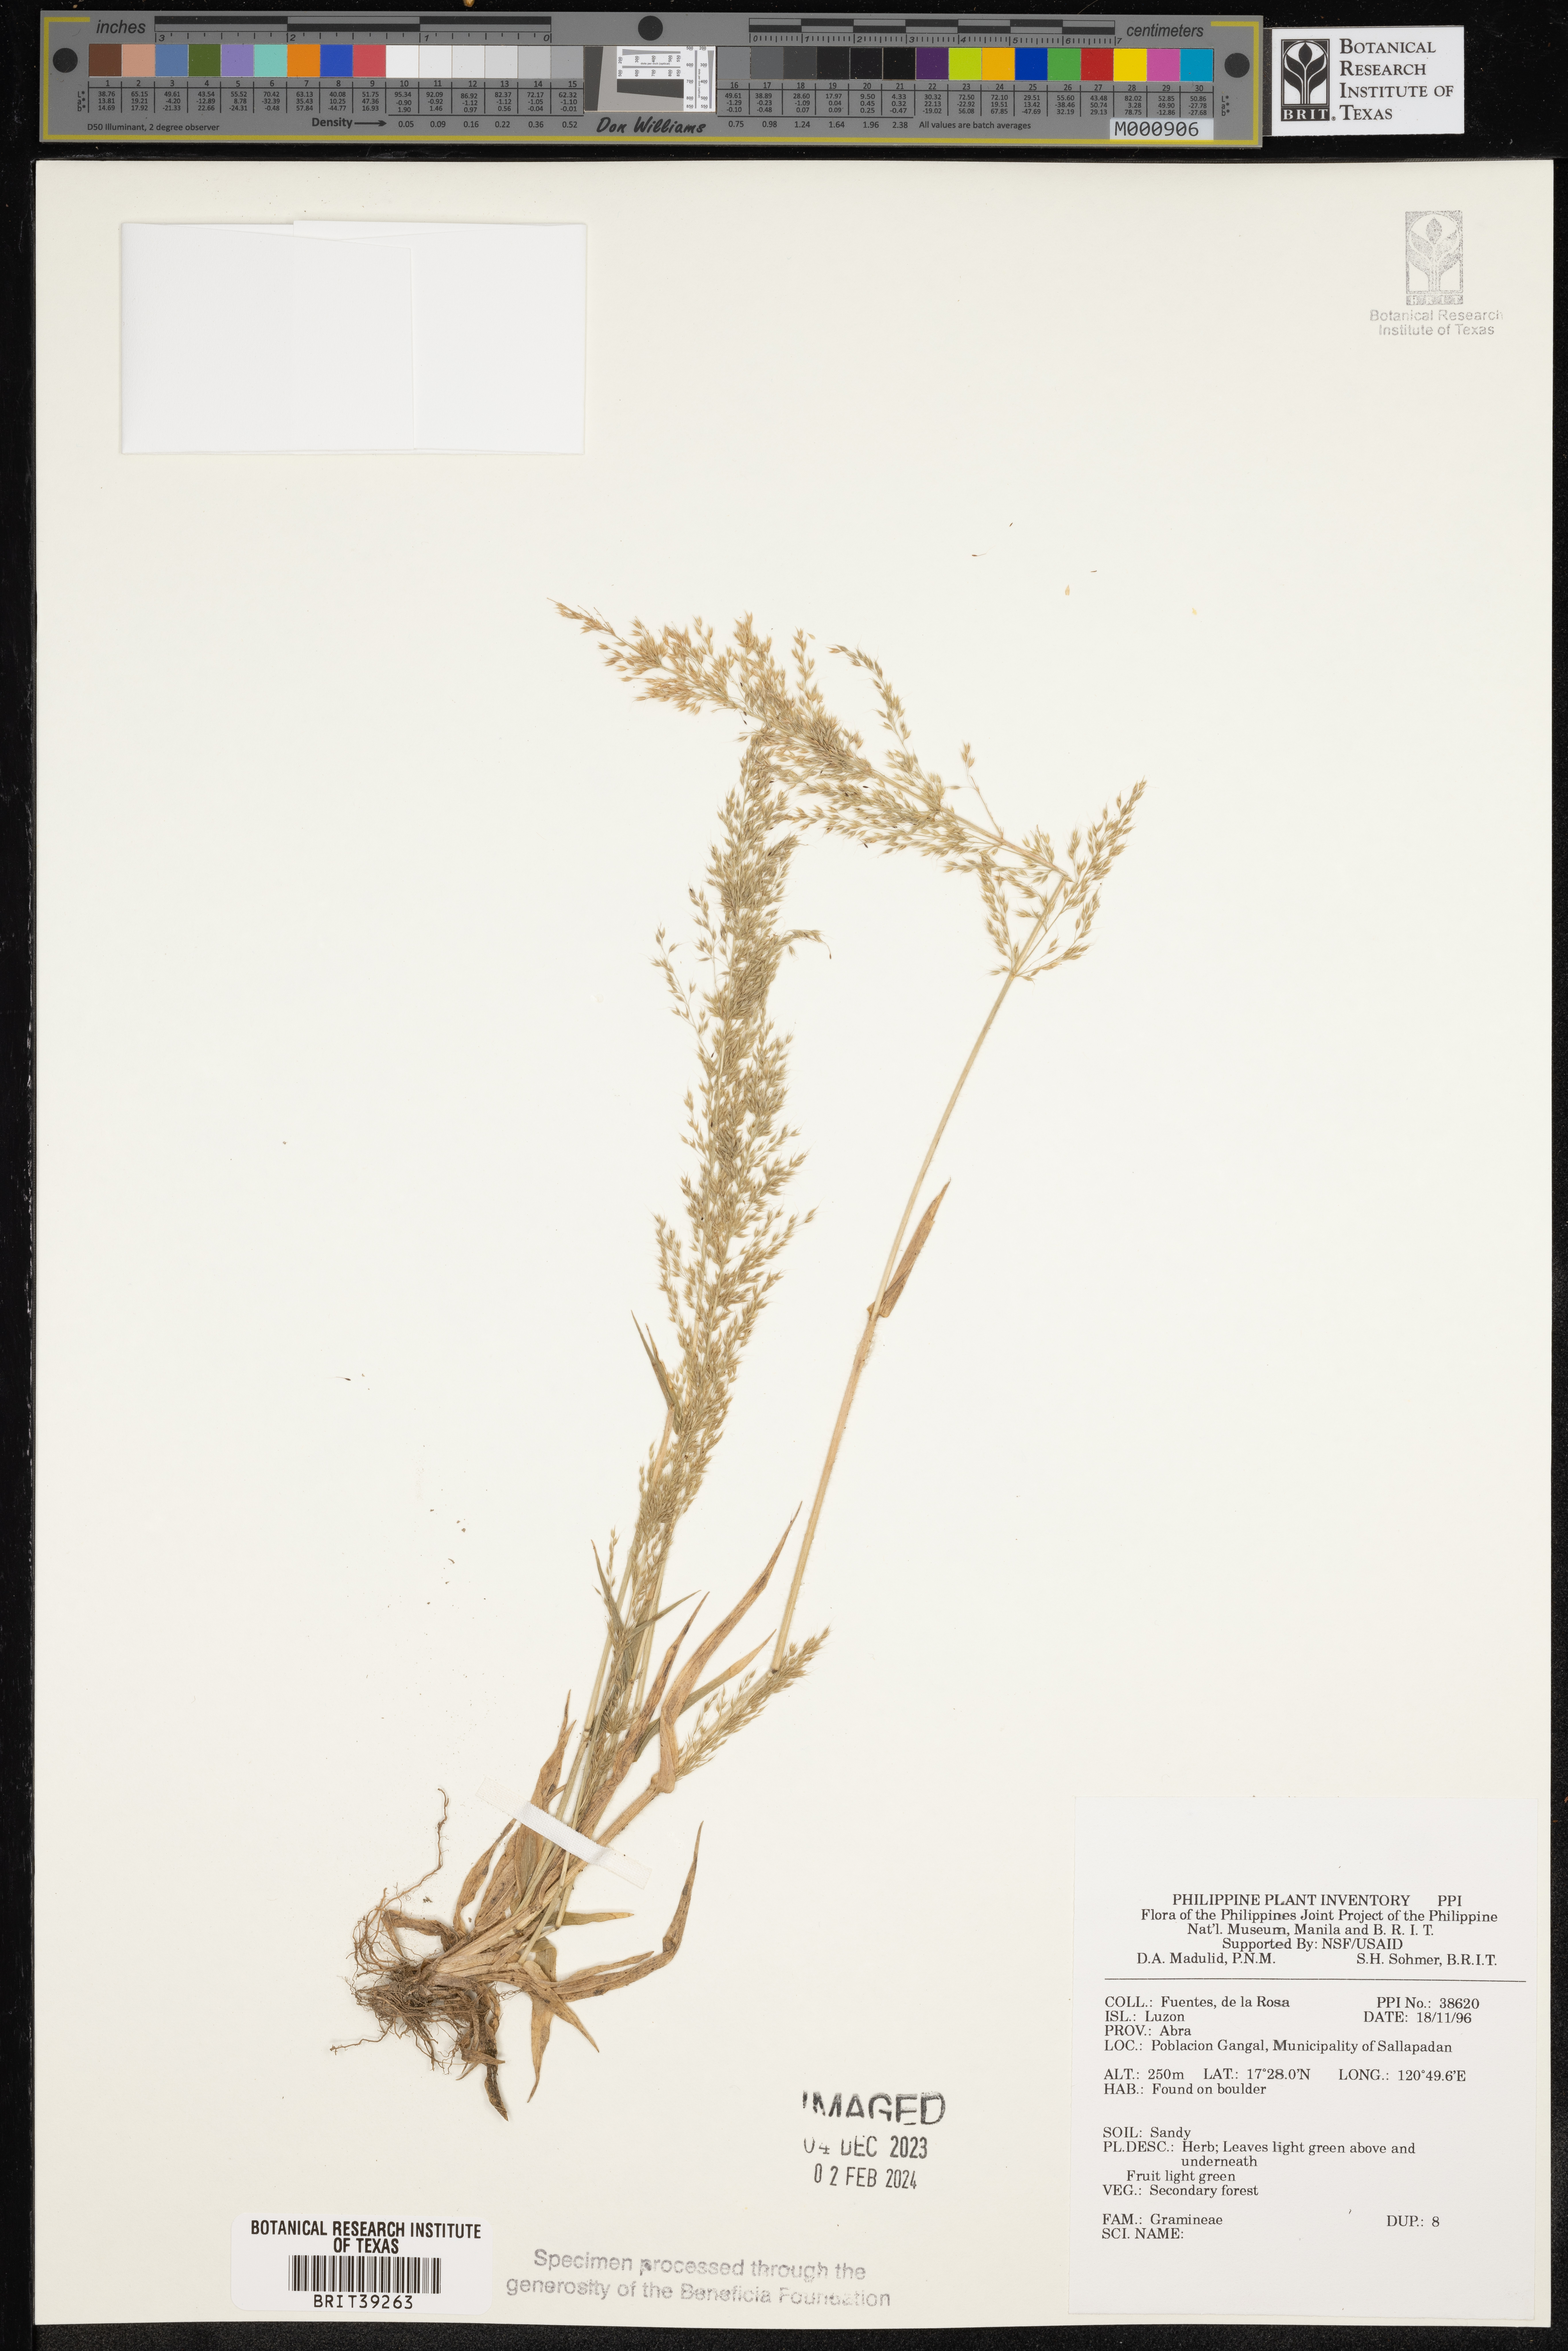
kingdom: Plantae
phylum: Tracheophyta
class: Liliopsida
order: Poales
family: Poaceae
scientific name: Poaceae
